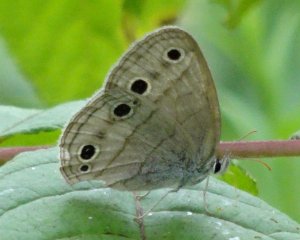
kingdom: Animalia
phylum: Arthropoda
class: Insecta
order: Lepidoptera
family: Nymphalidae
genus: Euptychia
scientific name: Euptychia cymela
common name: Little Wood Satyr
